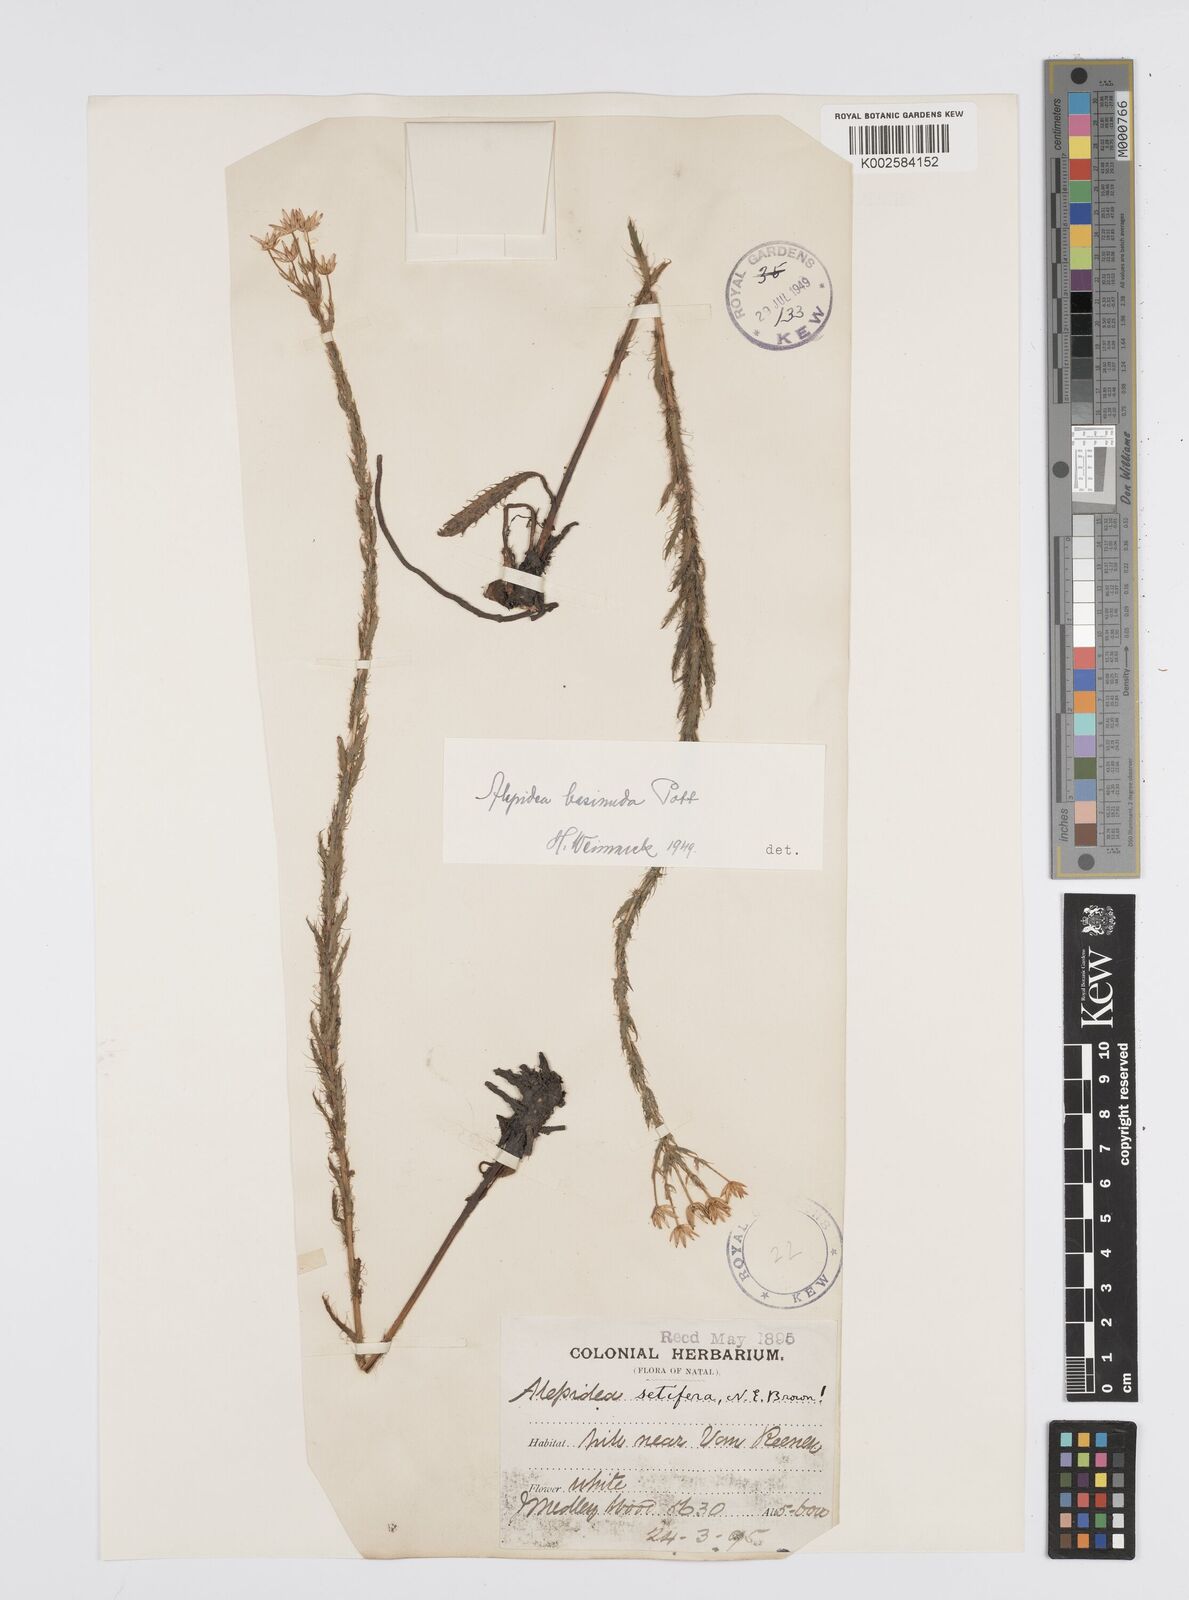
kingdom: Plantae
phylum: Tracheophyta
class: Magnoliopsida
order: Apiales
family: Apiaceae
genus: Alepidea
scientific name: Alepidea setifera
